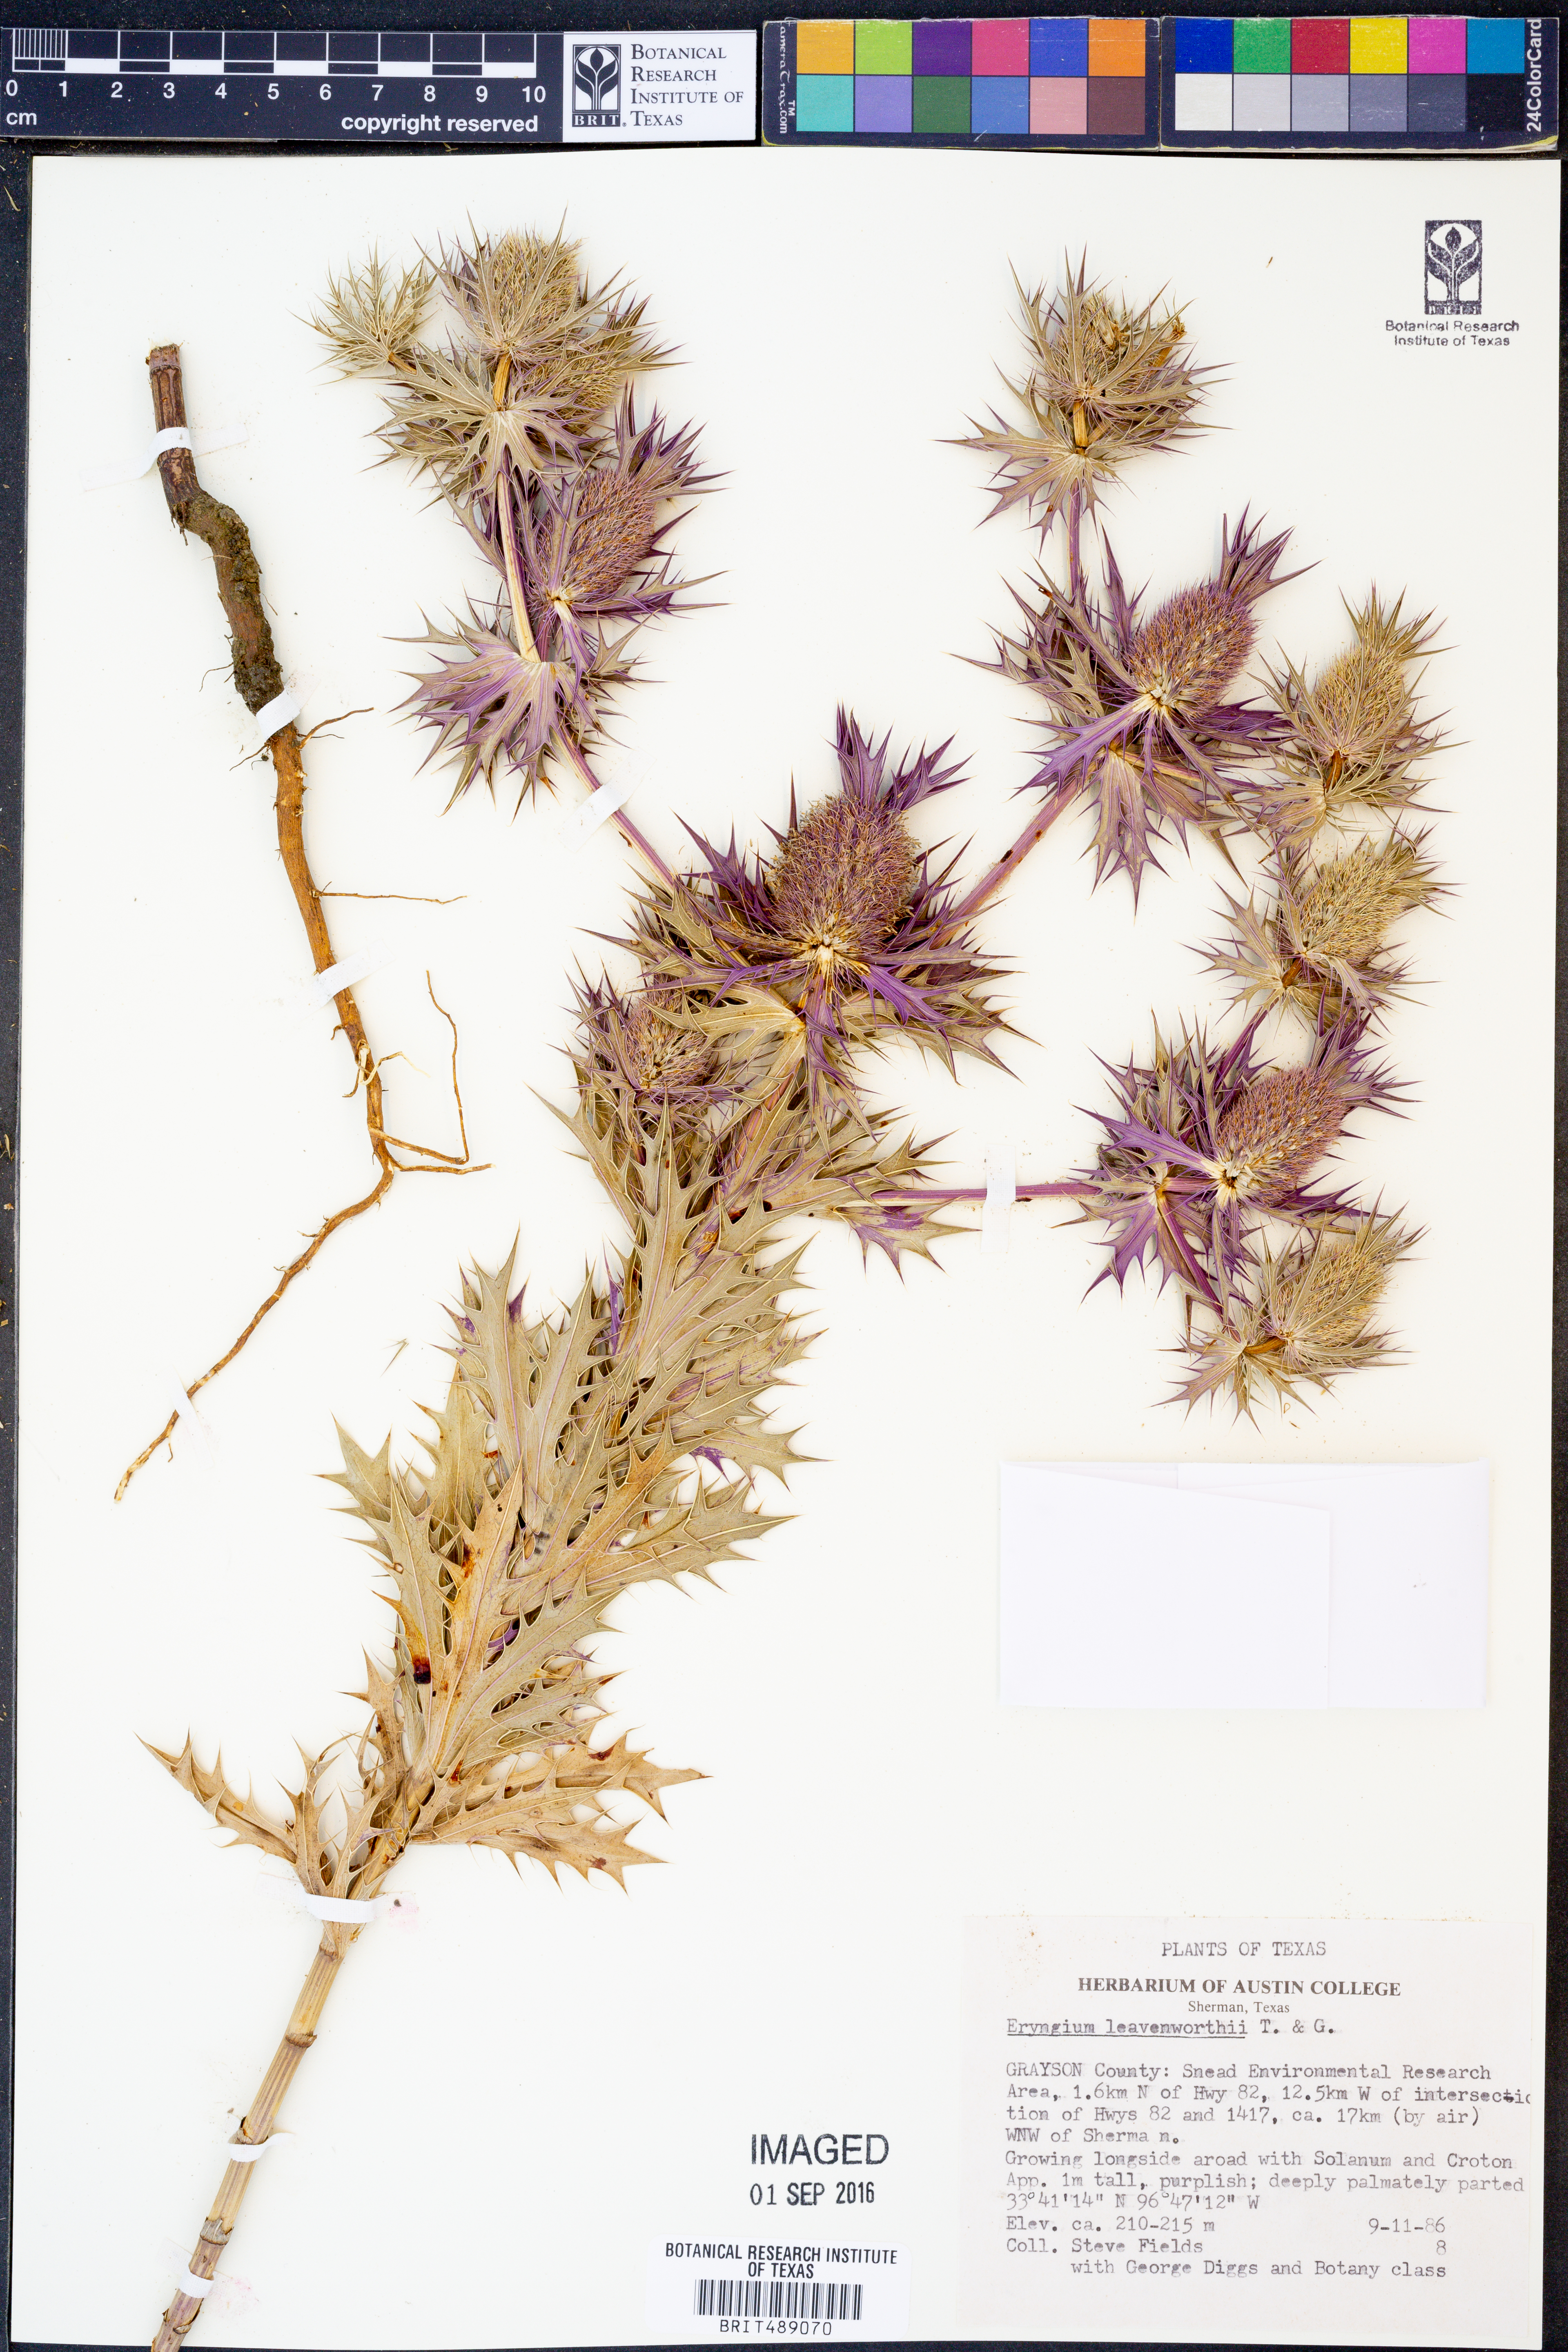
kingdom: Plantae
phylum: Tracheophyta
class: Magnoliopsida
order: Apiales
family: Apiaceae
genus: Eryngium
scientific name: Eryngium leavenworthii
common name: Leavenworth's eryngo
